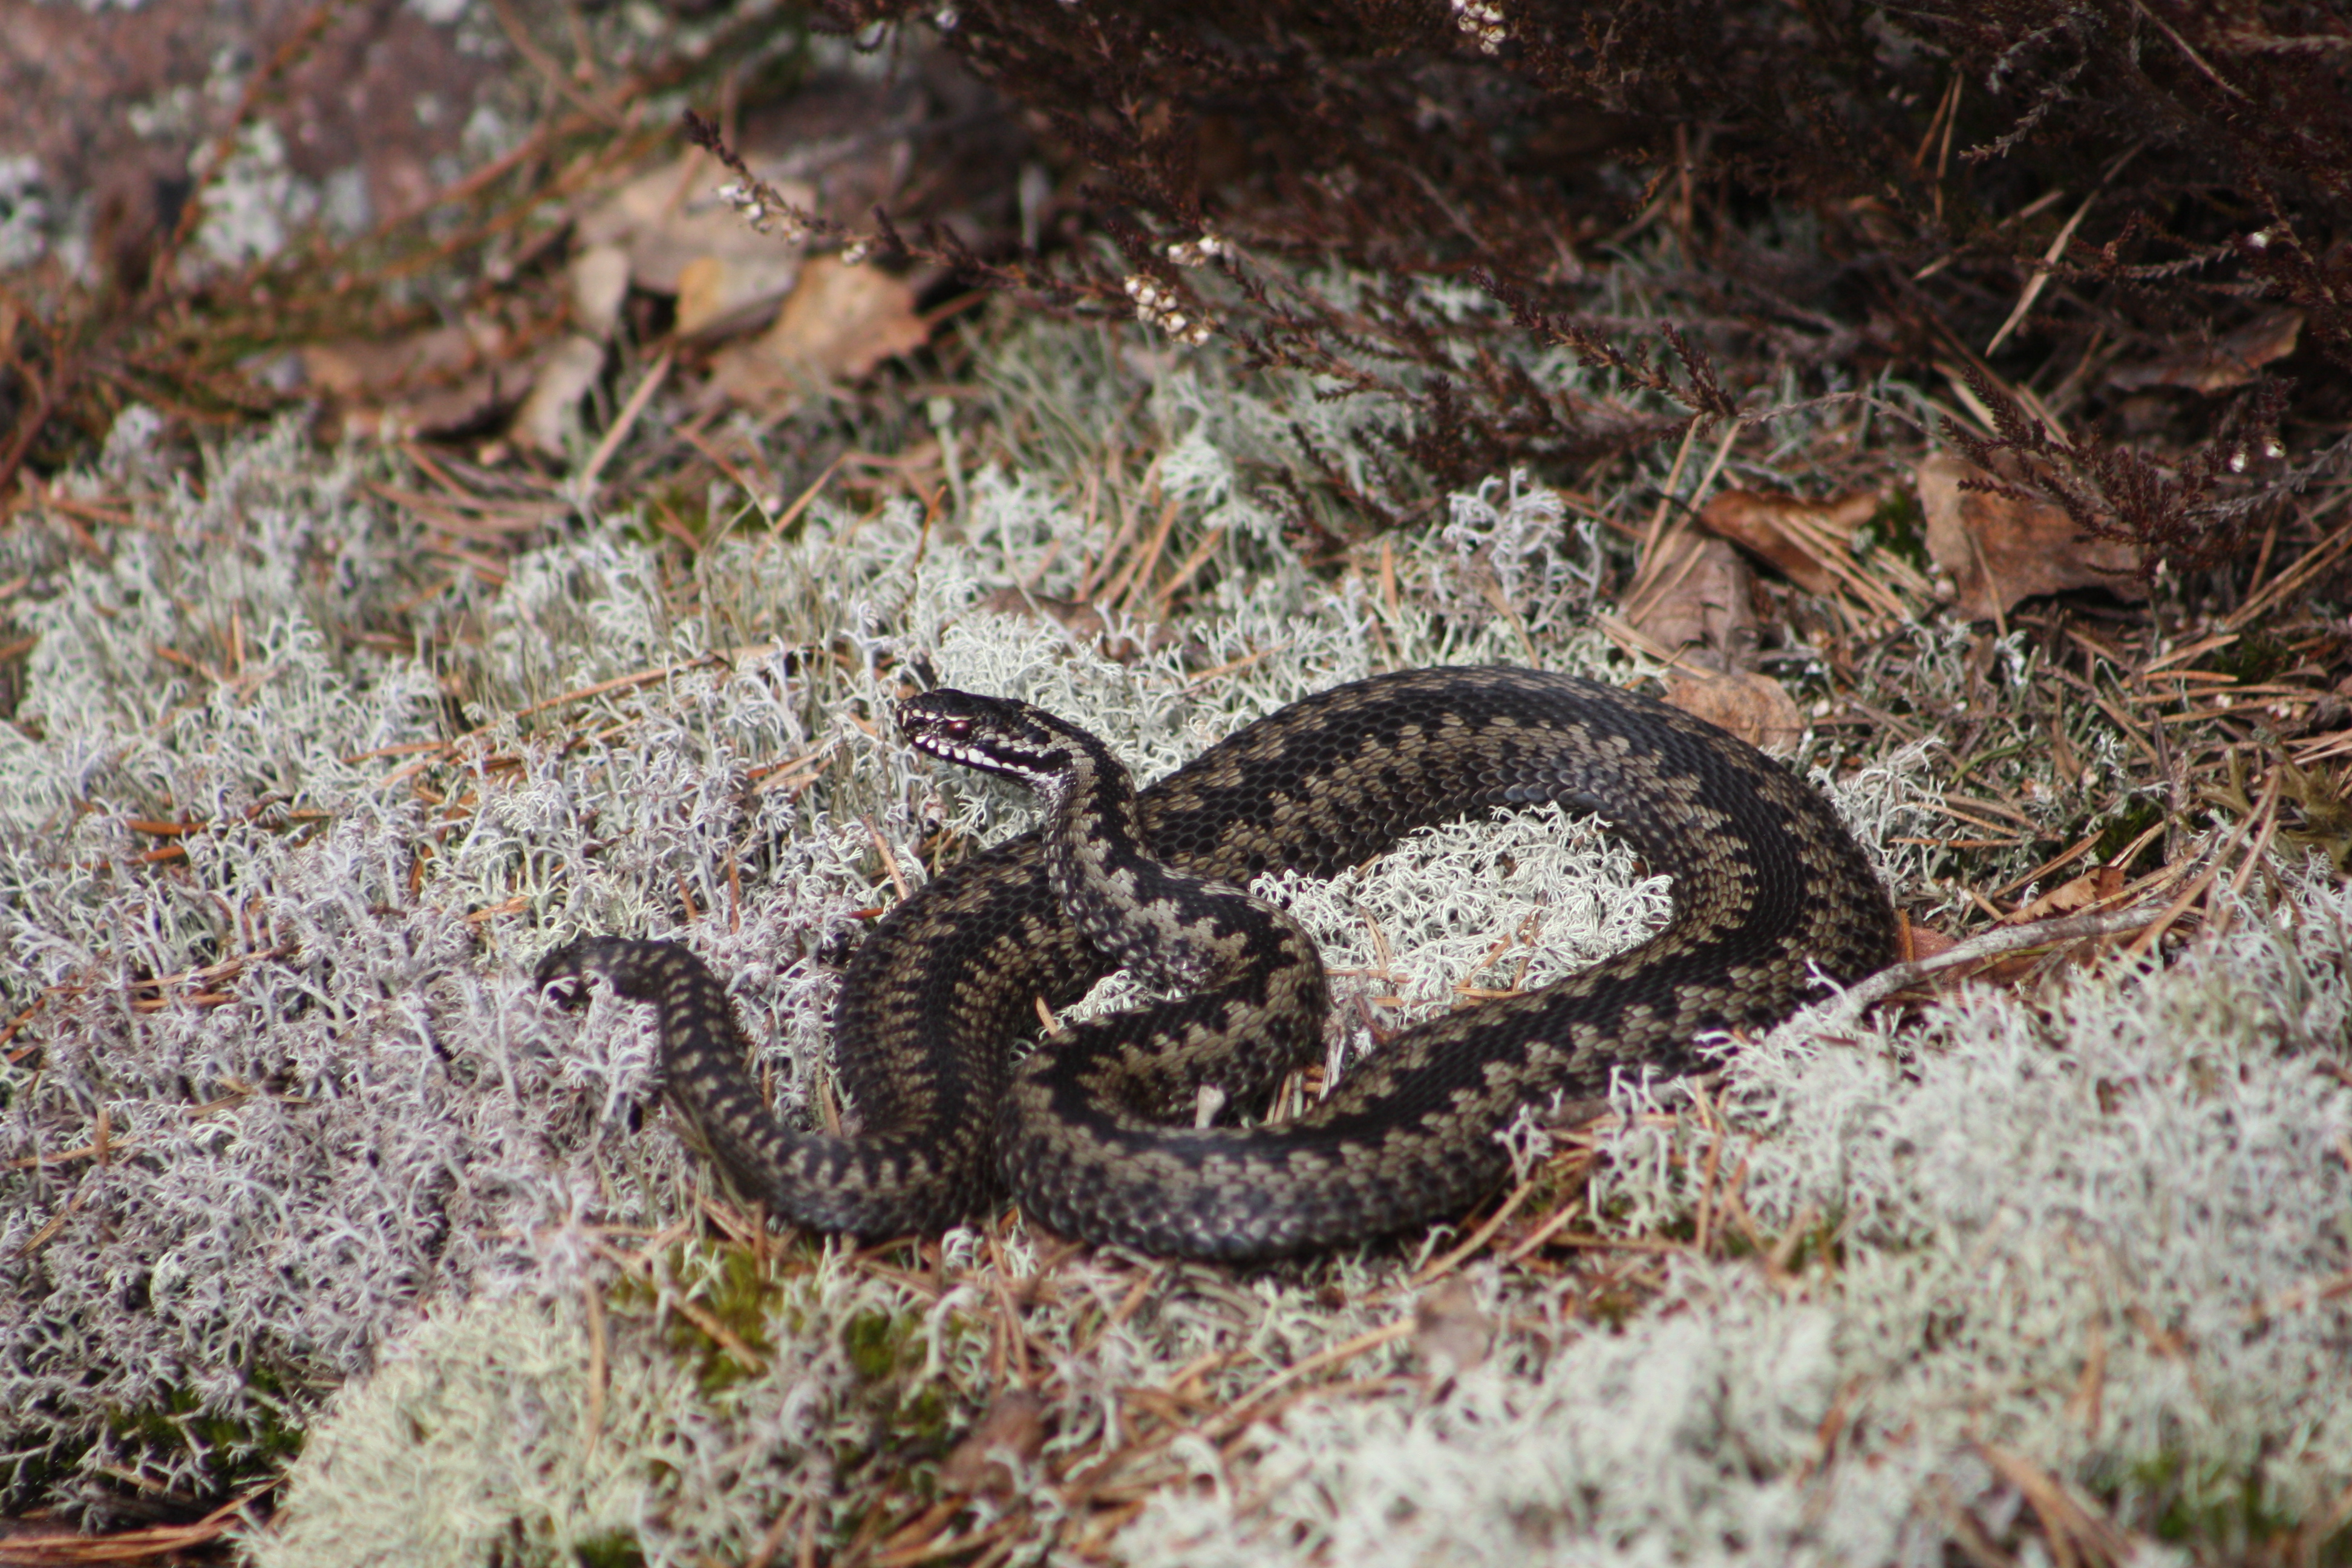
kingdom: Animalia
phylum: Chordata
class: Squamata
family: Viperidae
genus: Vipera
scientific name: Vipera berus
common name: Adder
